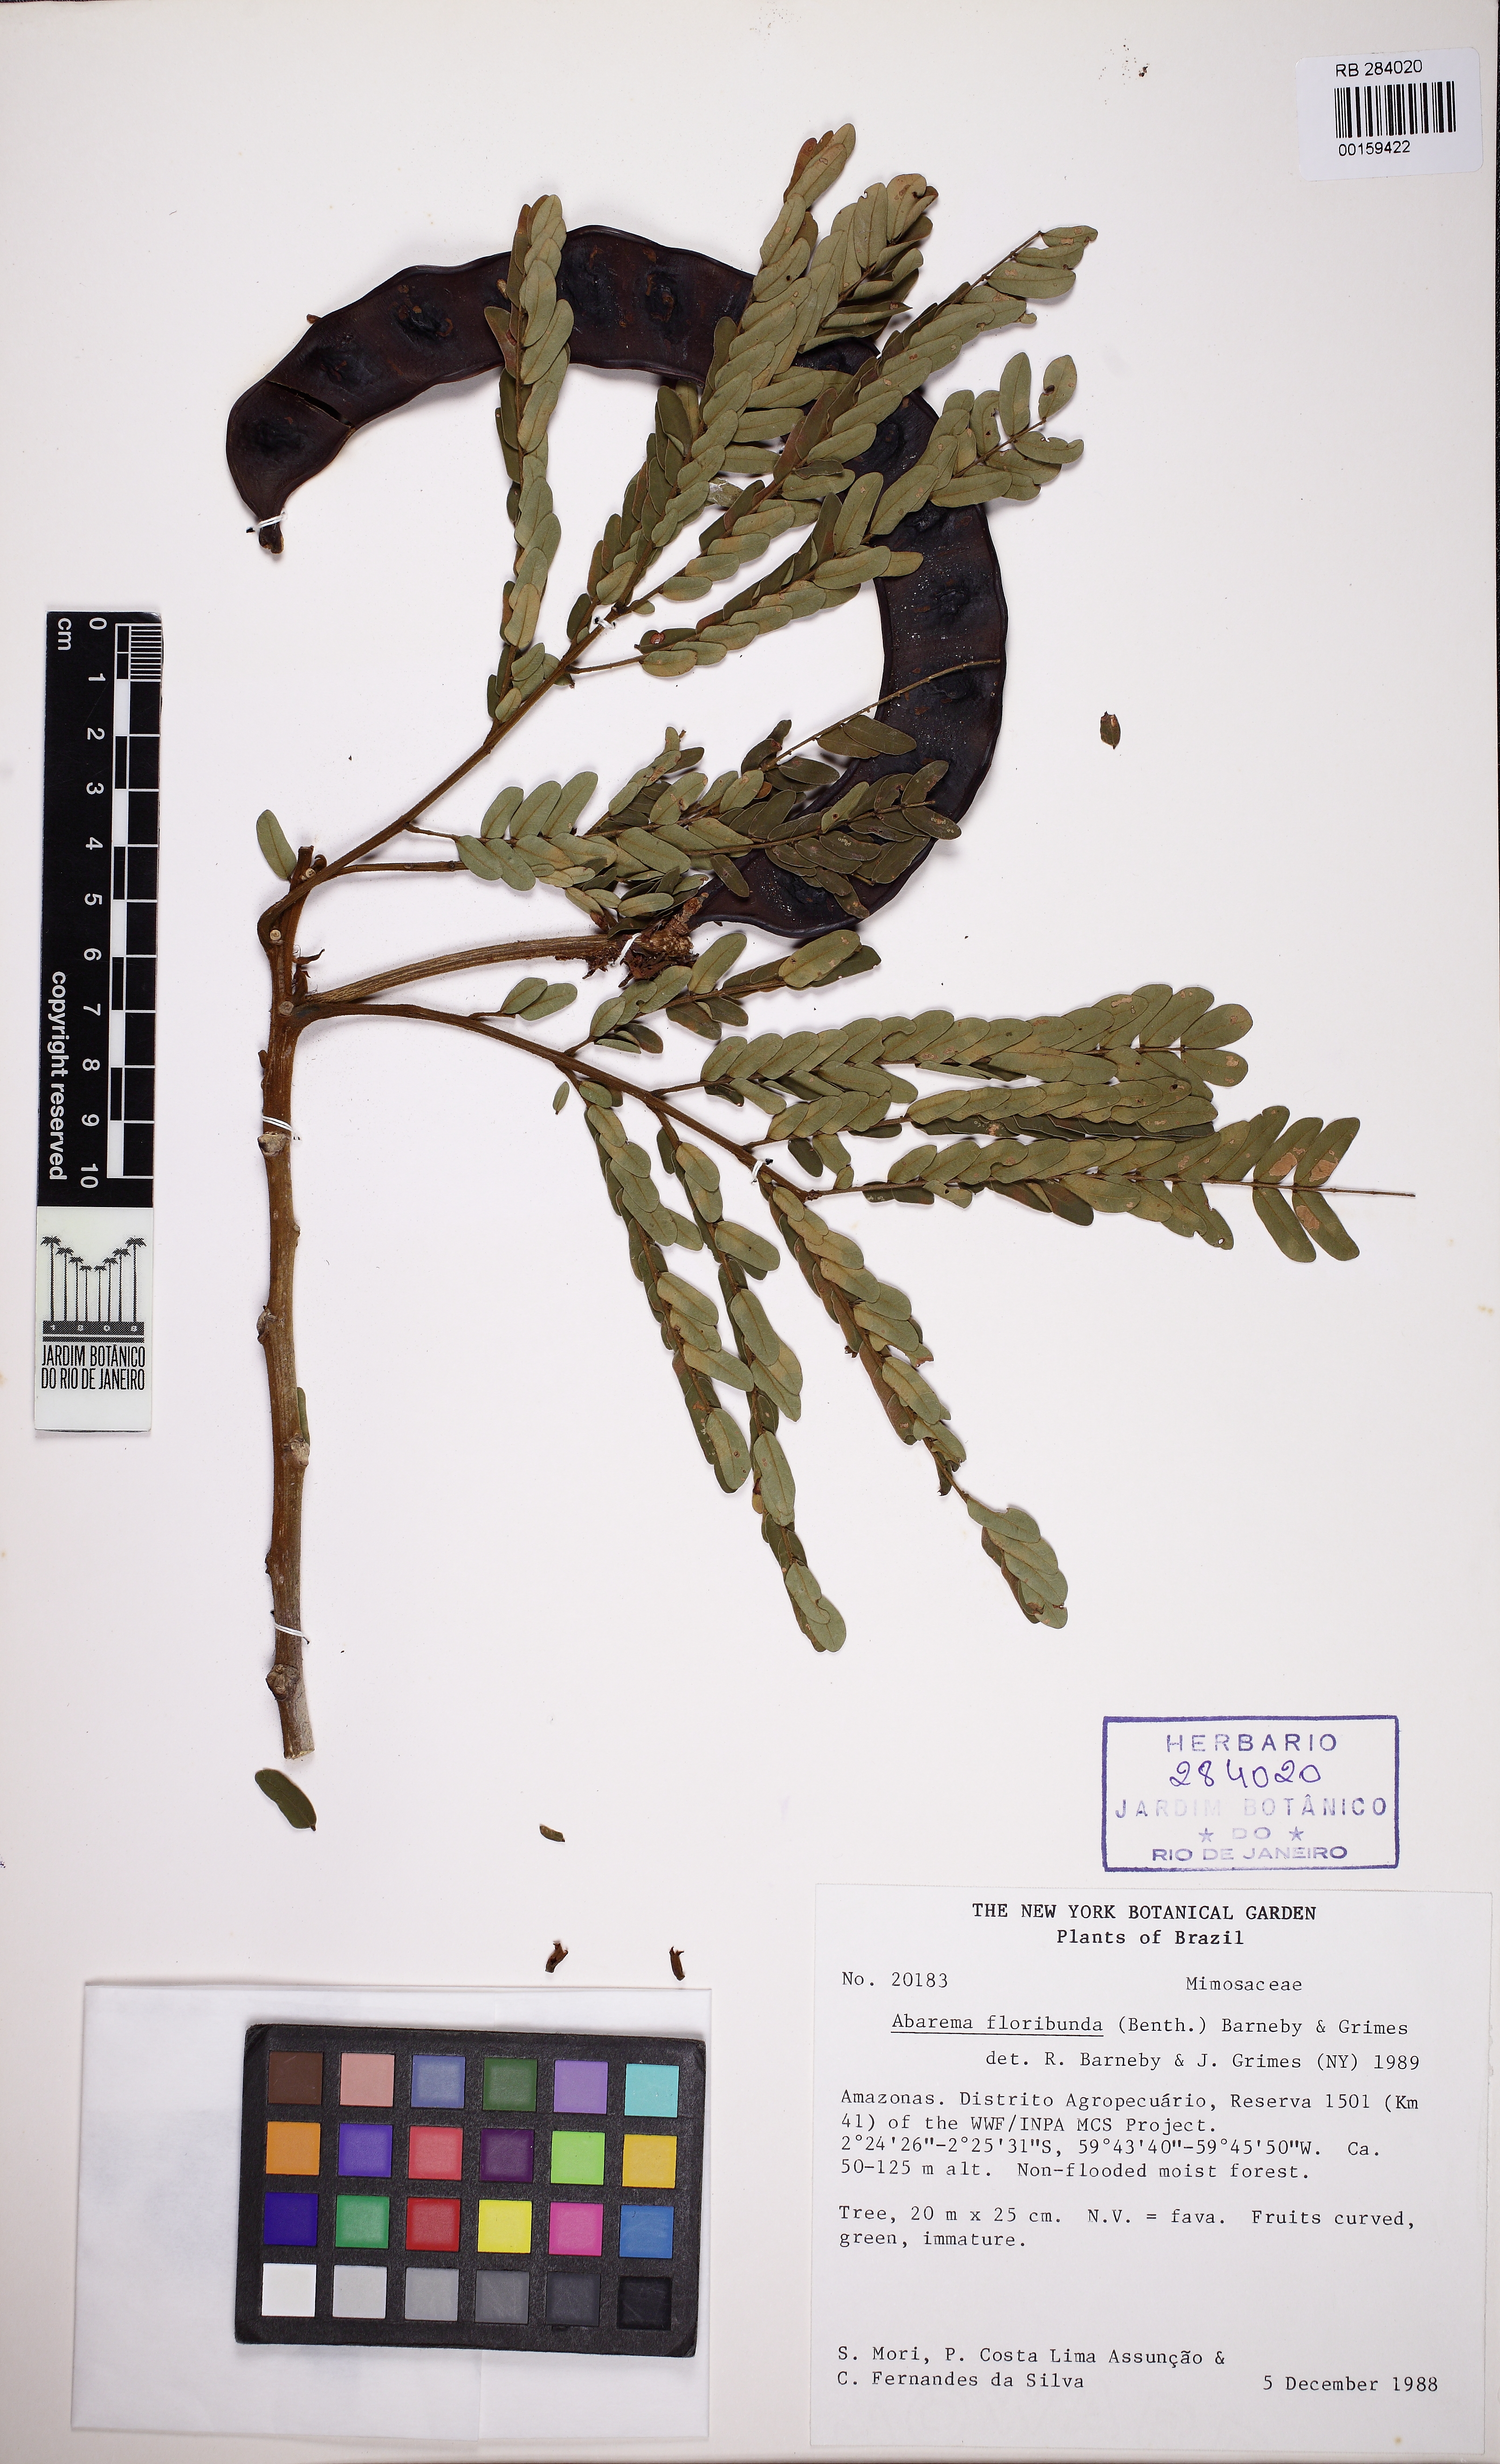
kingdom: Plantae
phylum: Tracheophyta
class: Magnoliopsida
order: Fabales
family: Fabaceae
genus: Jupunba
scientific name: Jupunba floribunda
